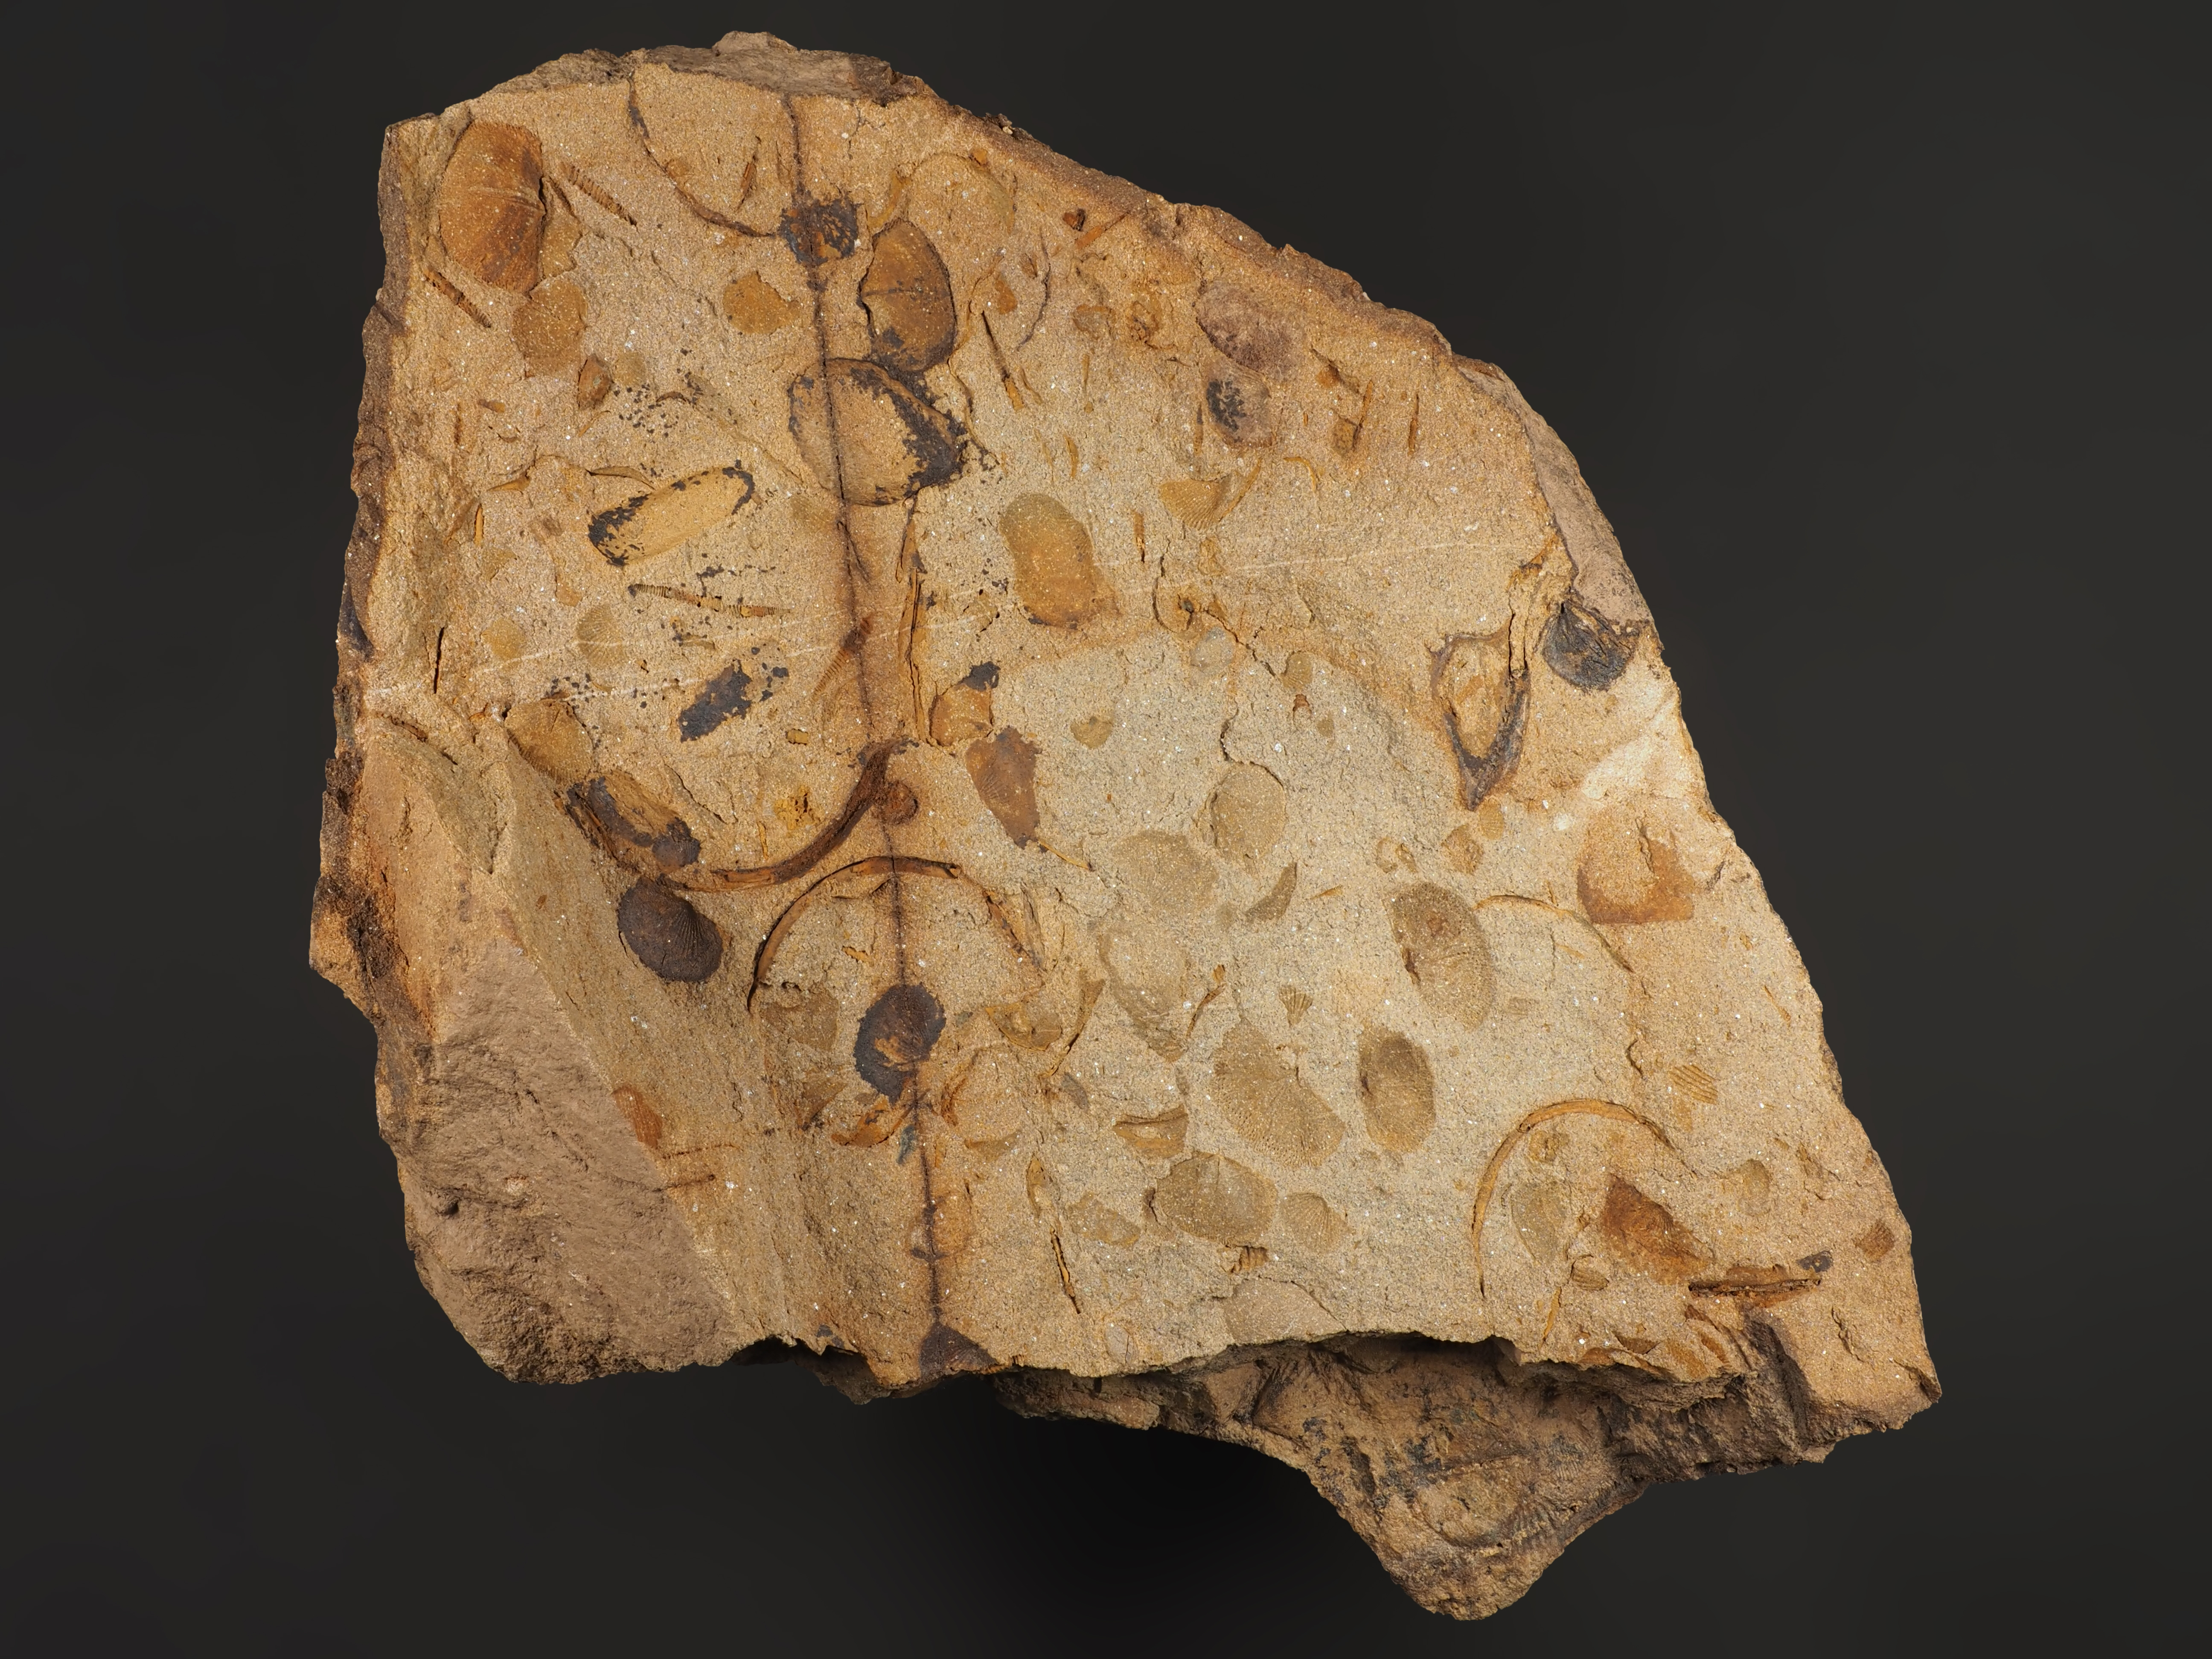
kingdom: Animalia
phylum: Arthropoda
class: Trilobita
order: Phacopida
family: Acastidae
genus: Acastava
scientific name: Acastava
